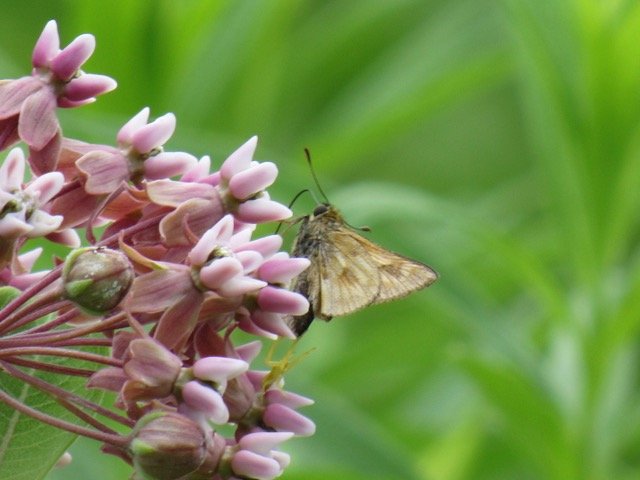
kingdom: Animalia
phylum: Arthropoda
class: Insecta
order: Lepidoptera
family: Hesperiidae
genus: Polites
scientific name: Polites
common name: Long Dash Skipper
